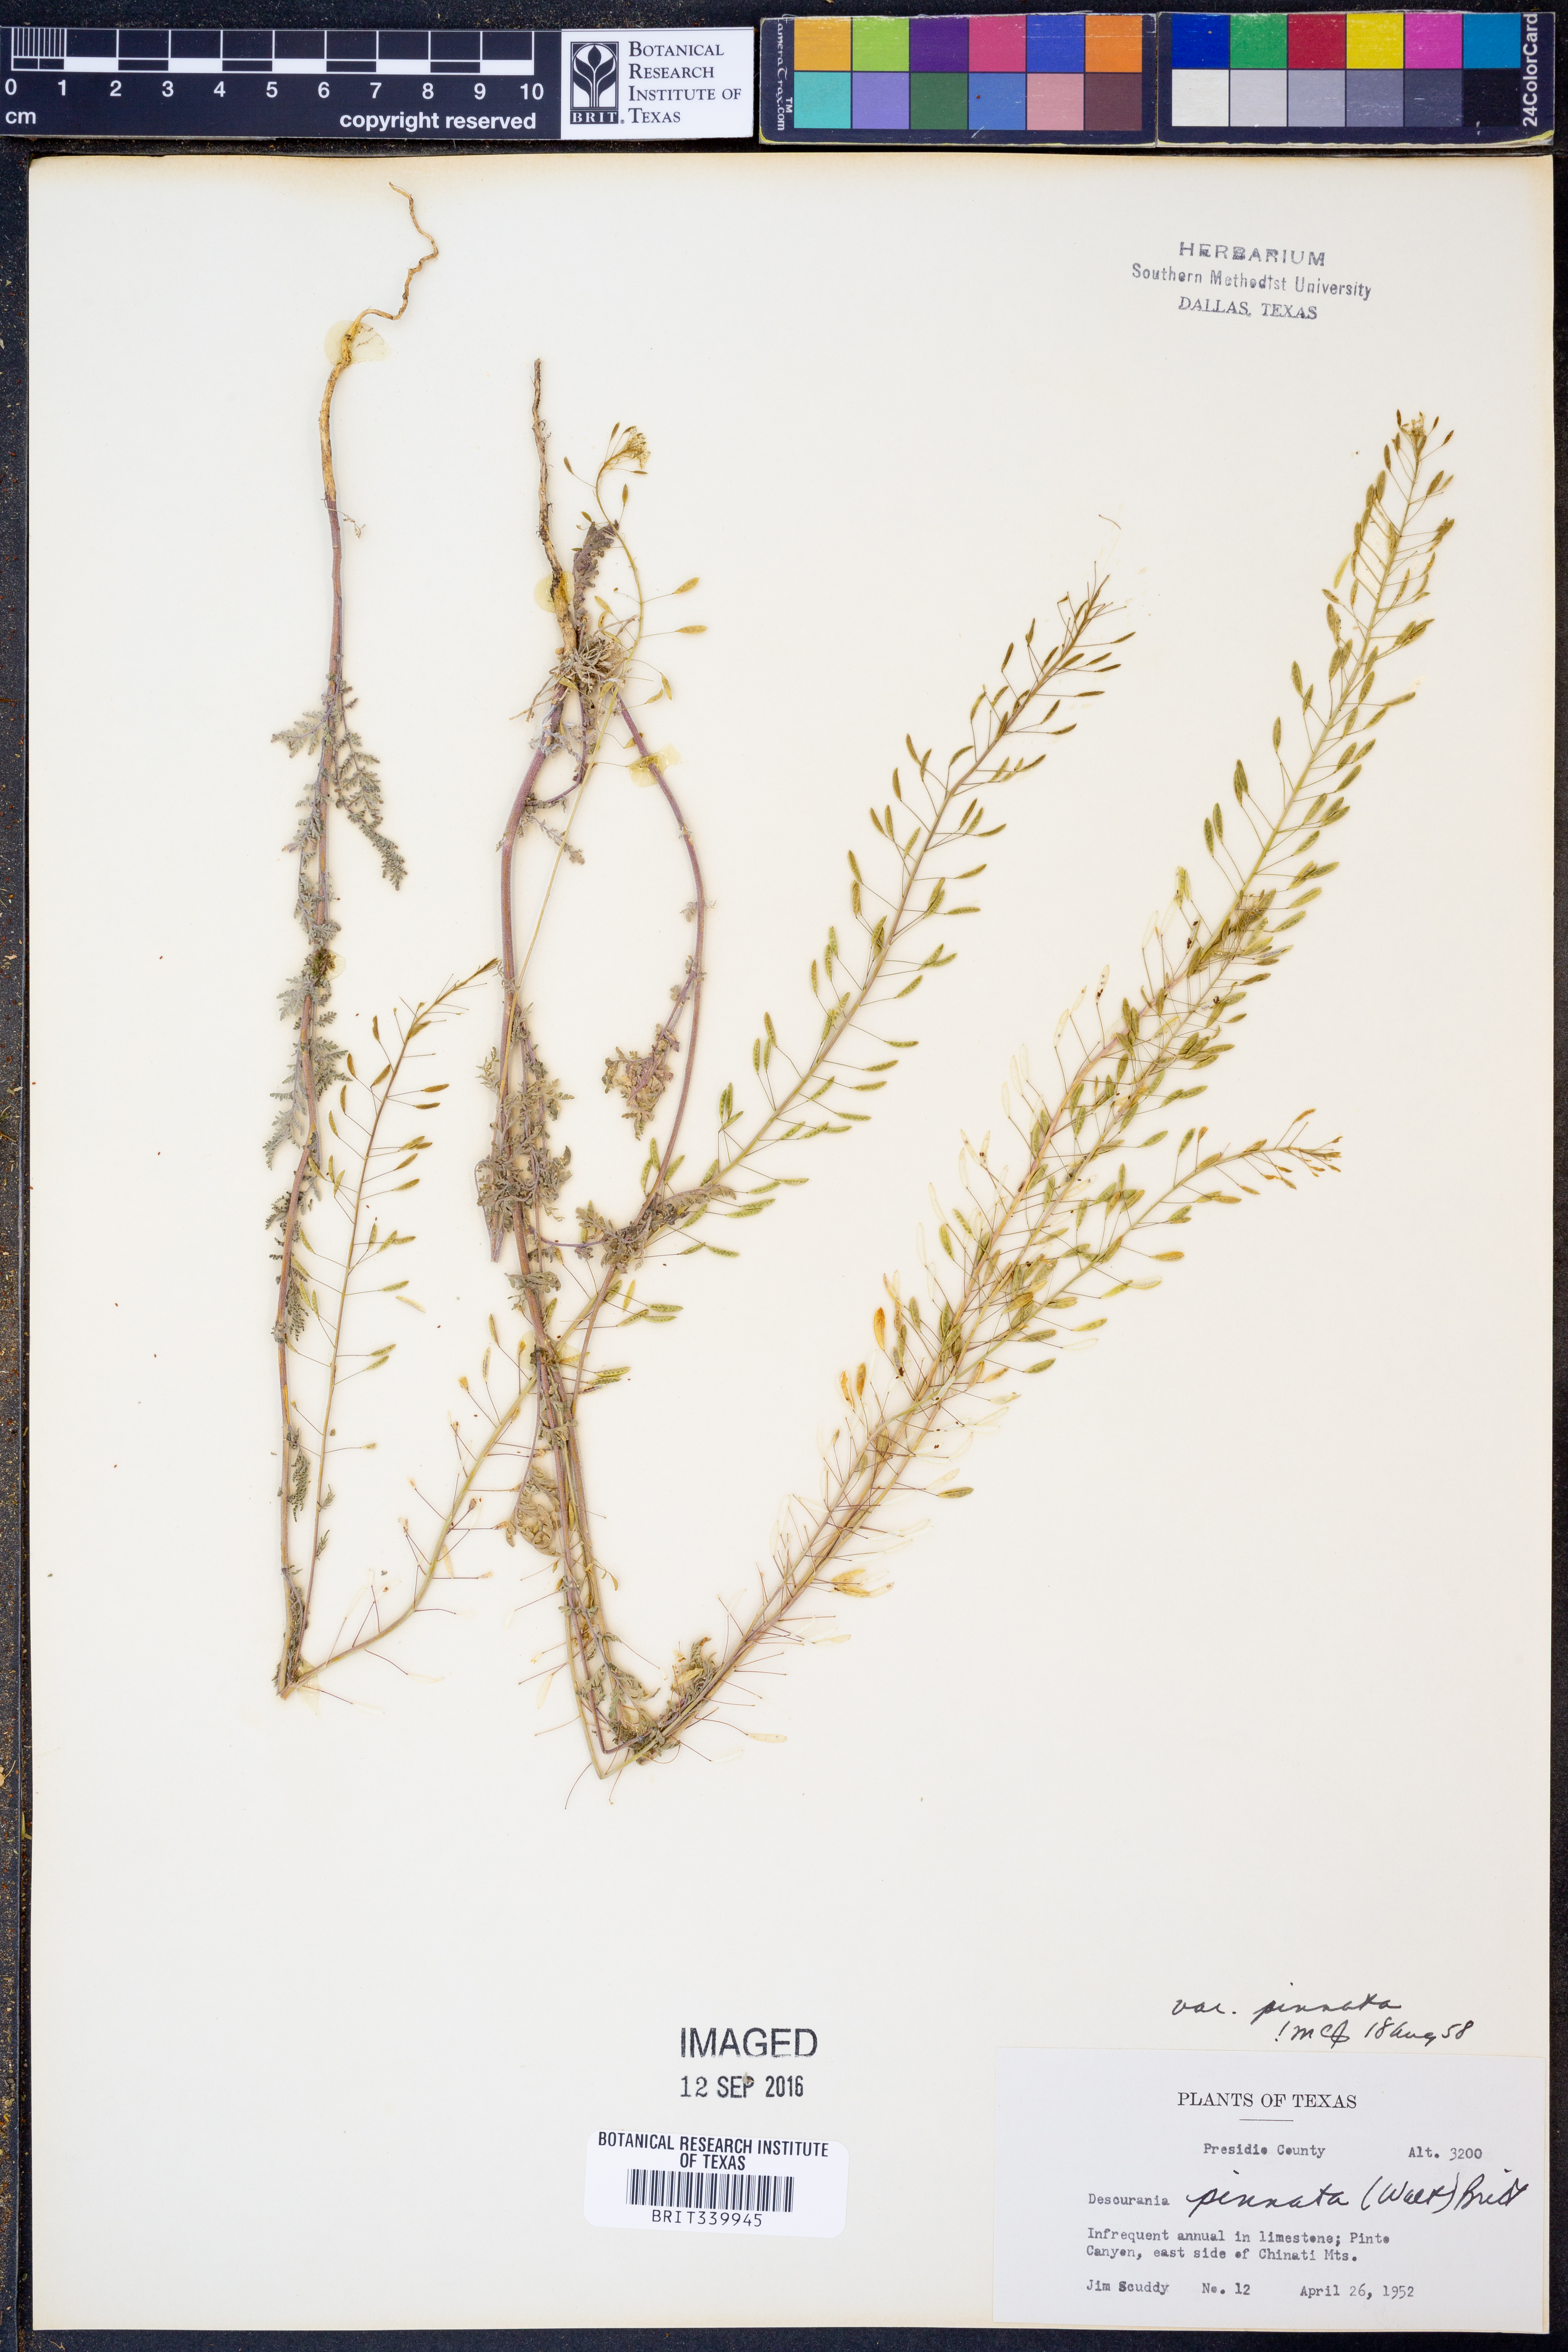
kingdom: Plantae
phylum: Tracheophyta
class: Magnoliopsida
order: Brassicales
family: Brassicaceae
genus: Descurainia
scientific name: Descurainia pinnata
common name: Western tansy mustard
